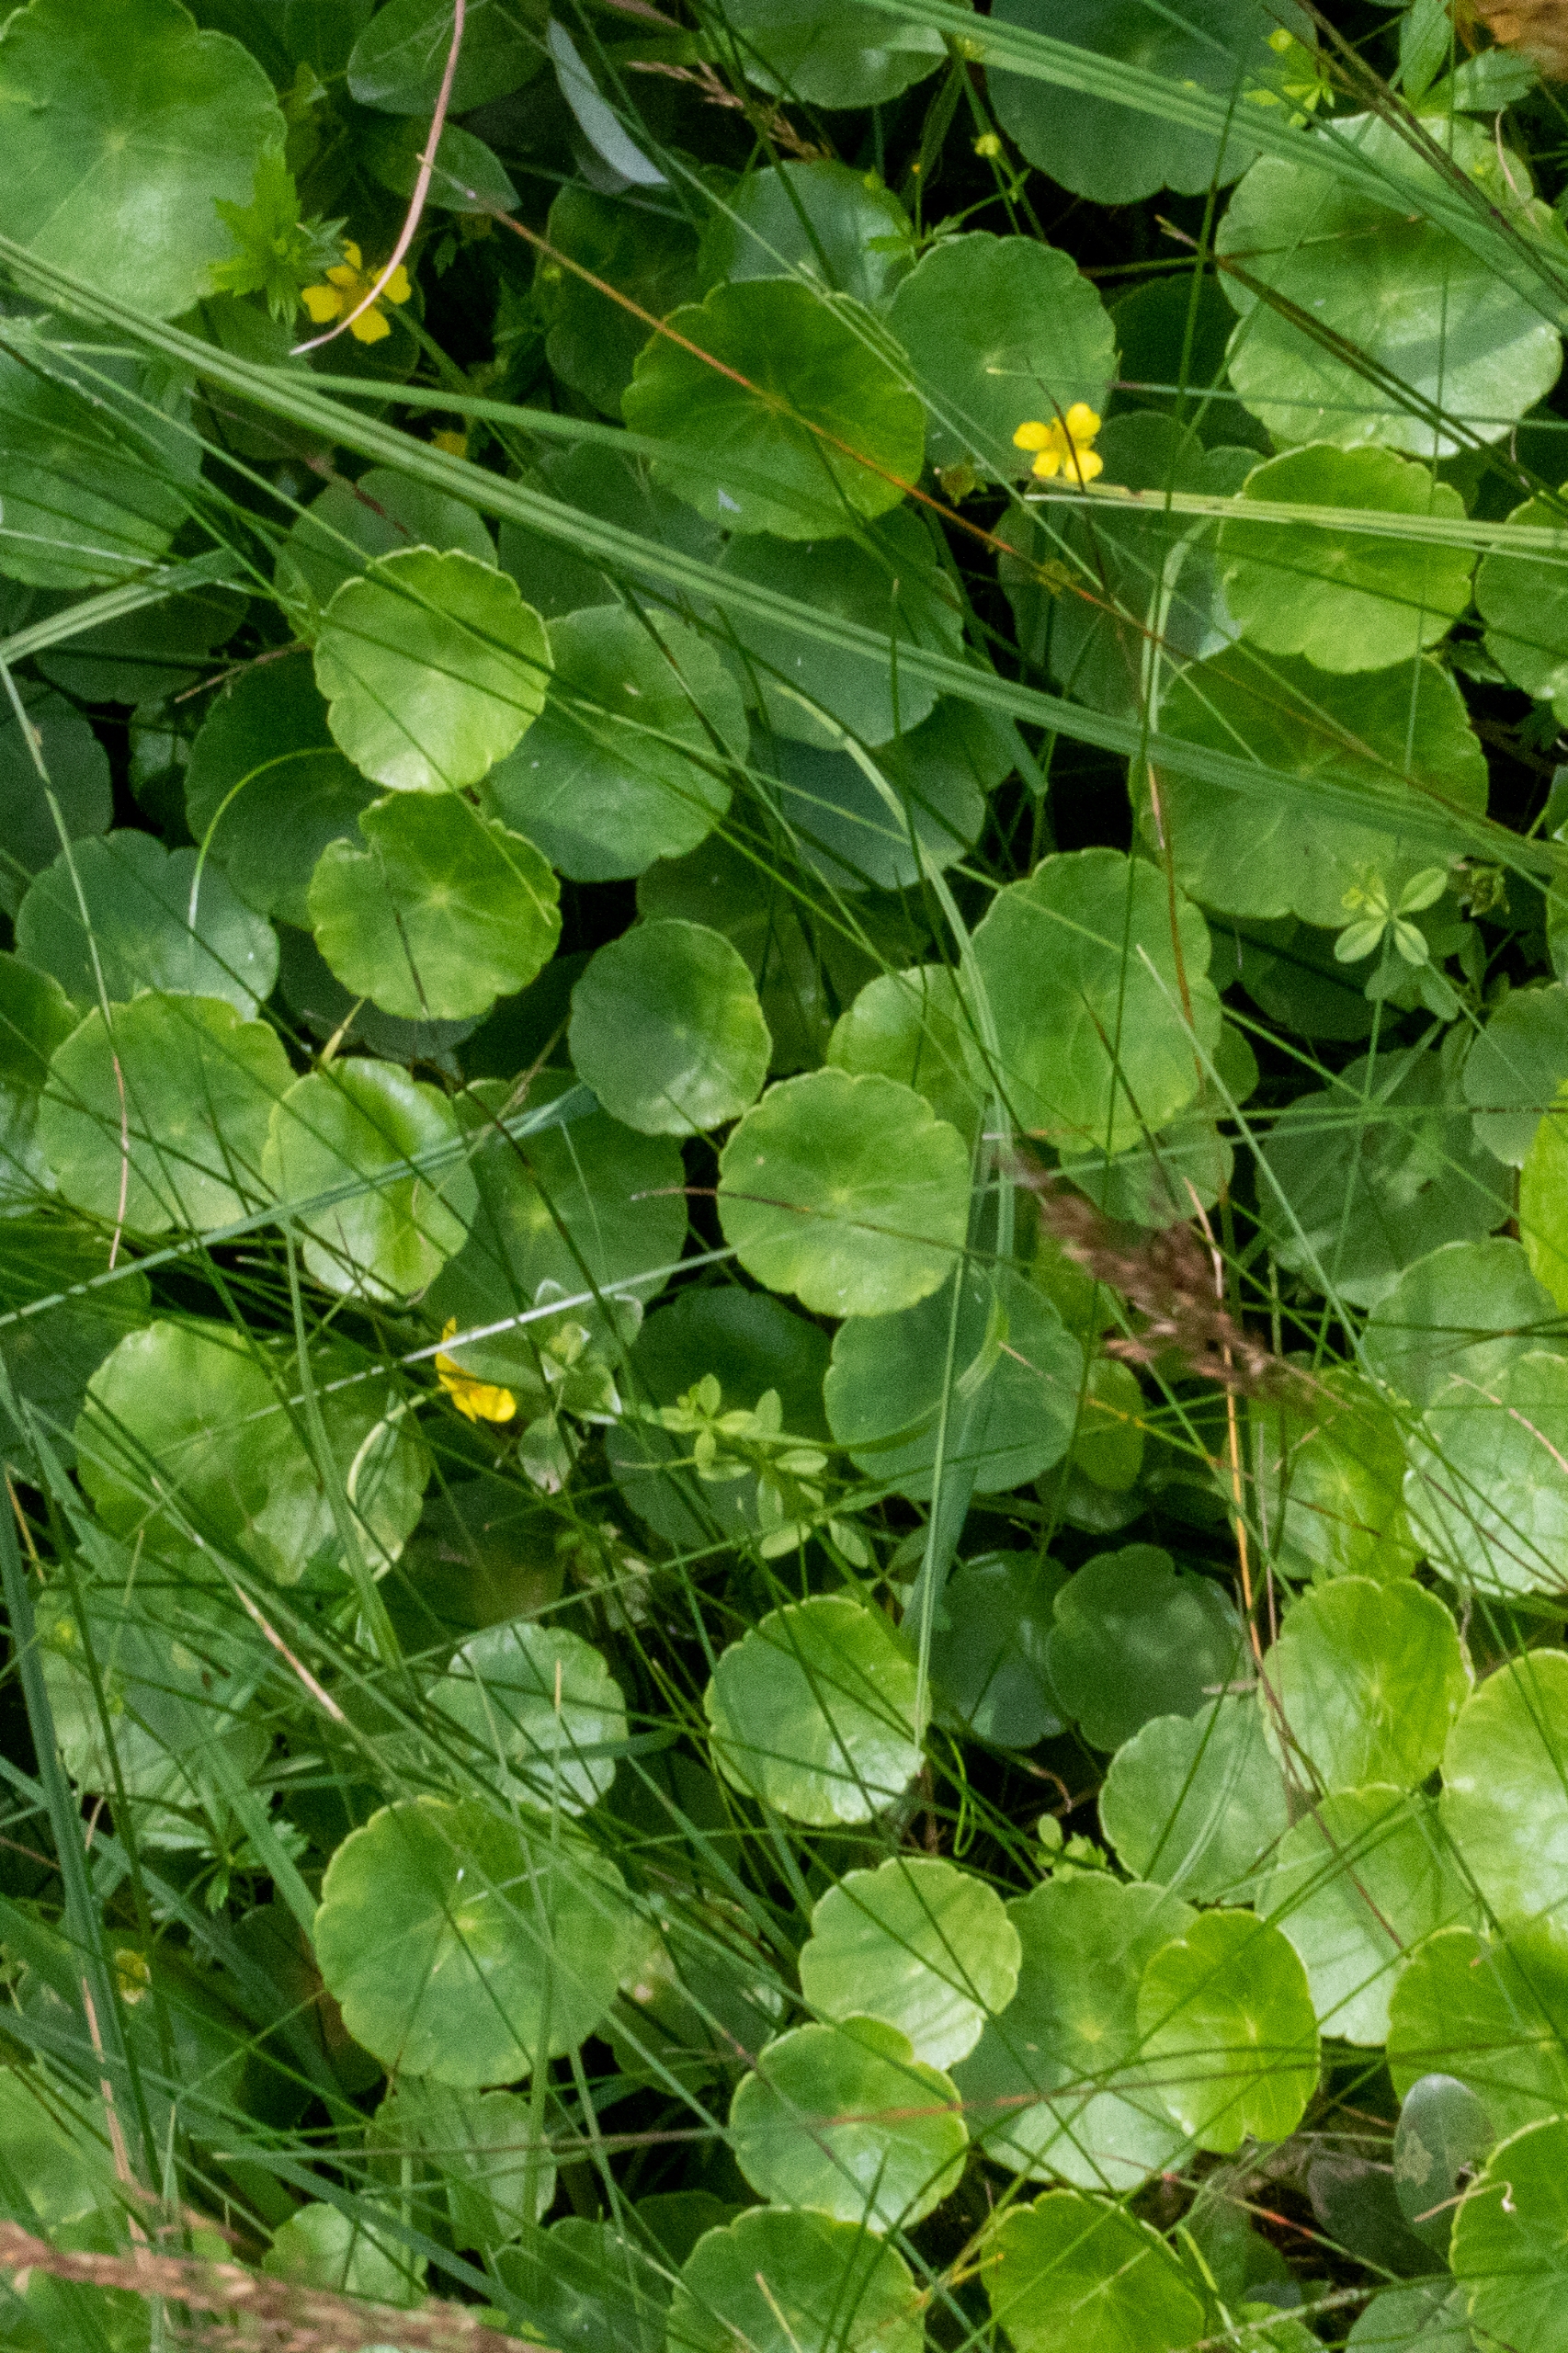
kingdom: Plantae
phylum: Tracheophyta
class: Magnoliopsida
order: Apiales
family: Araliaceae
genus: Hydrocotyle
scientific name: Hydrocotyle vulgaris
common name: Vandnavle
